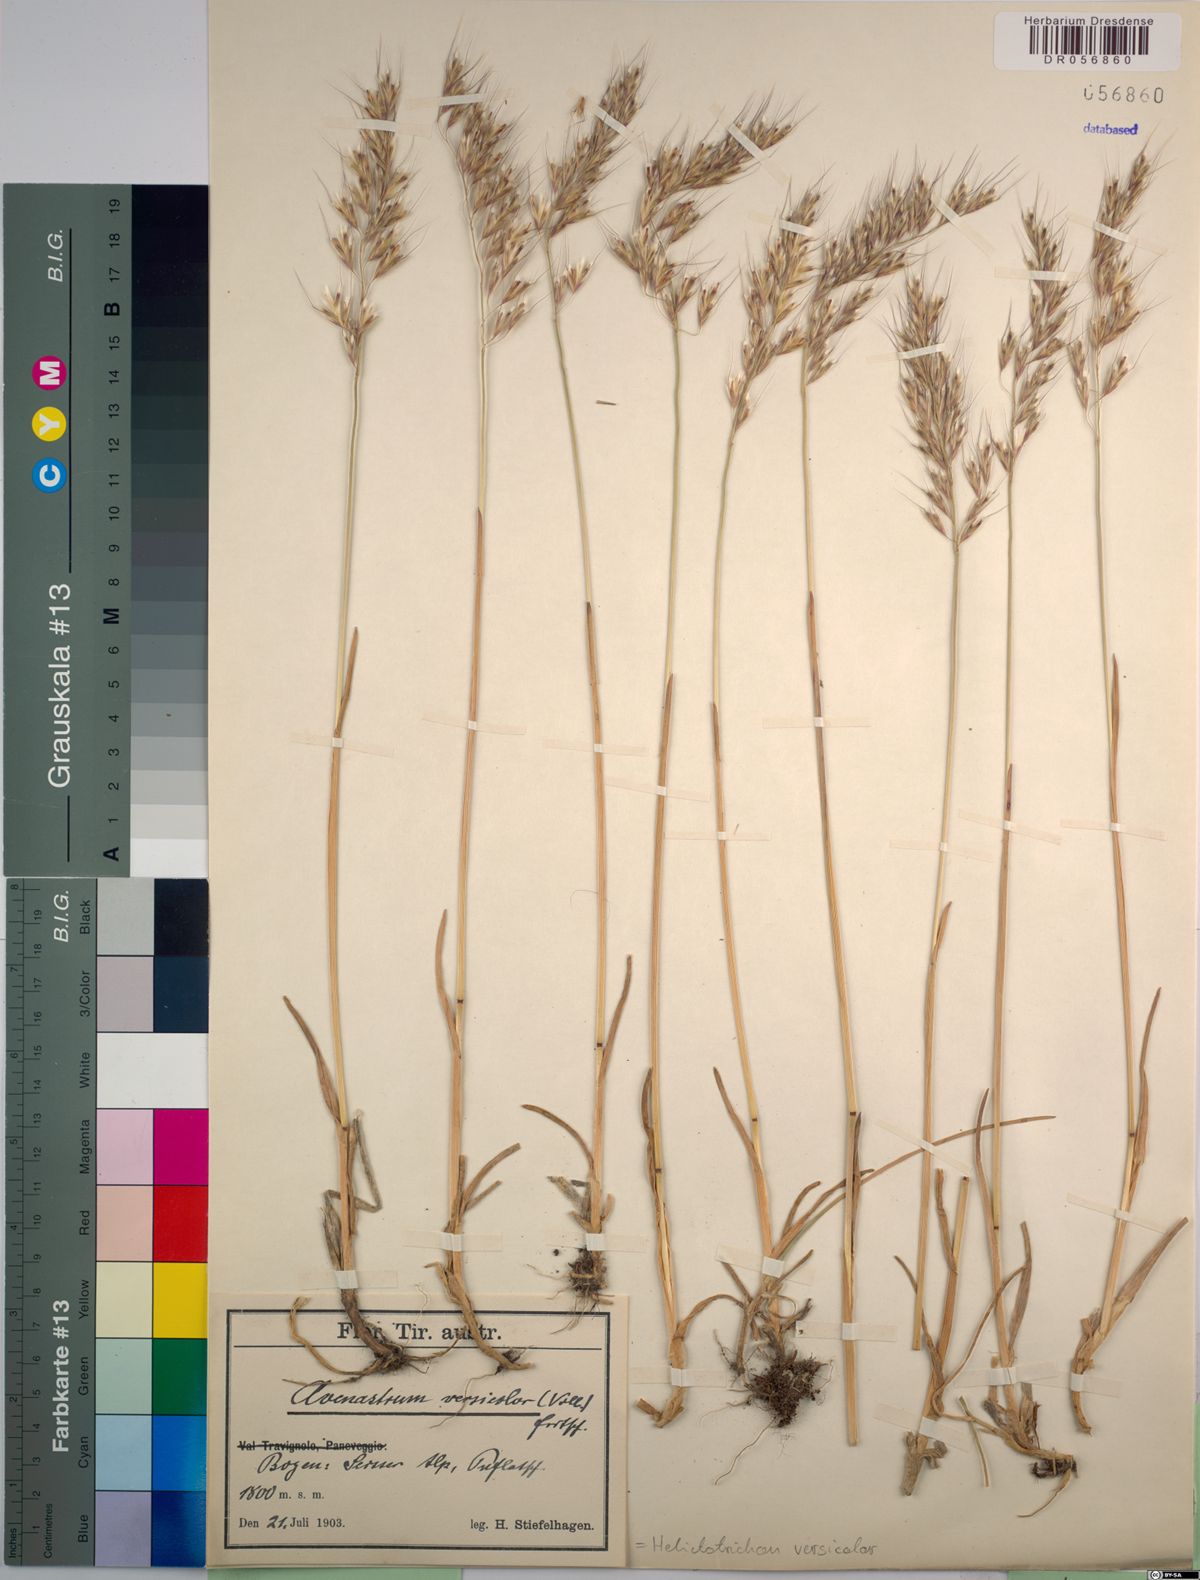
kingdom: Plantae
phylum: Tracheophyta
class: Liliopsida
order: Poales
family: Poaceae
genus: Helictochloa
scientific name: Helictochloa versicolor
